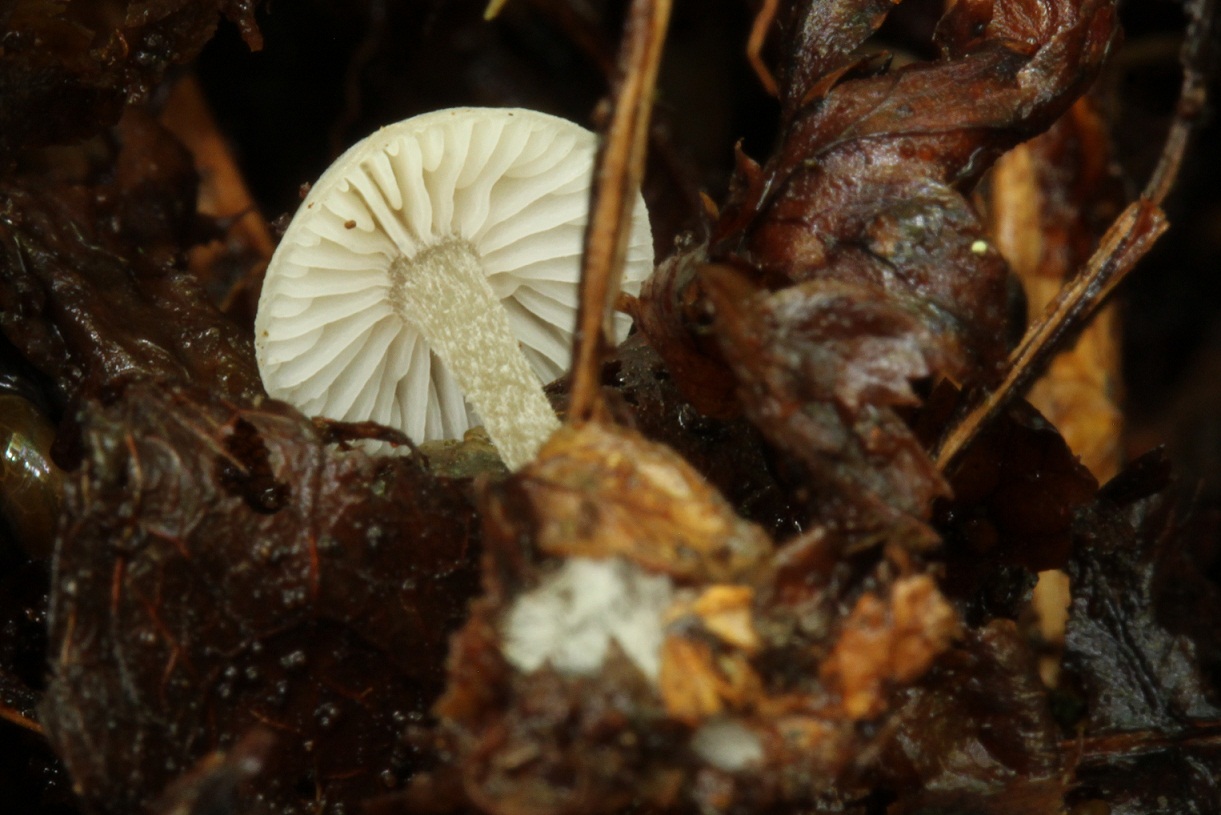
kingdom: Fungi
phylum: Basidiomycota
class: Agaricomycetes
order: Agaricales
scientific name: Agaricales
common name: kridt-tragthat
